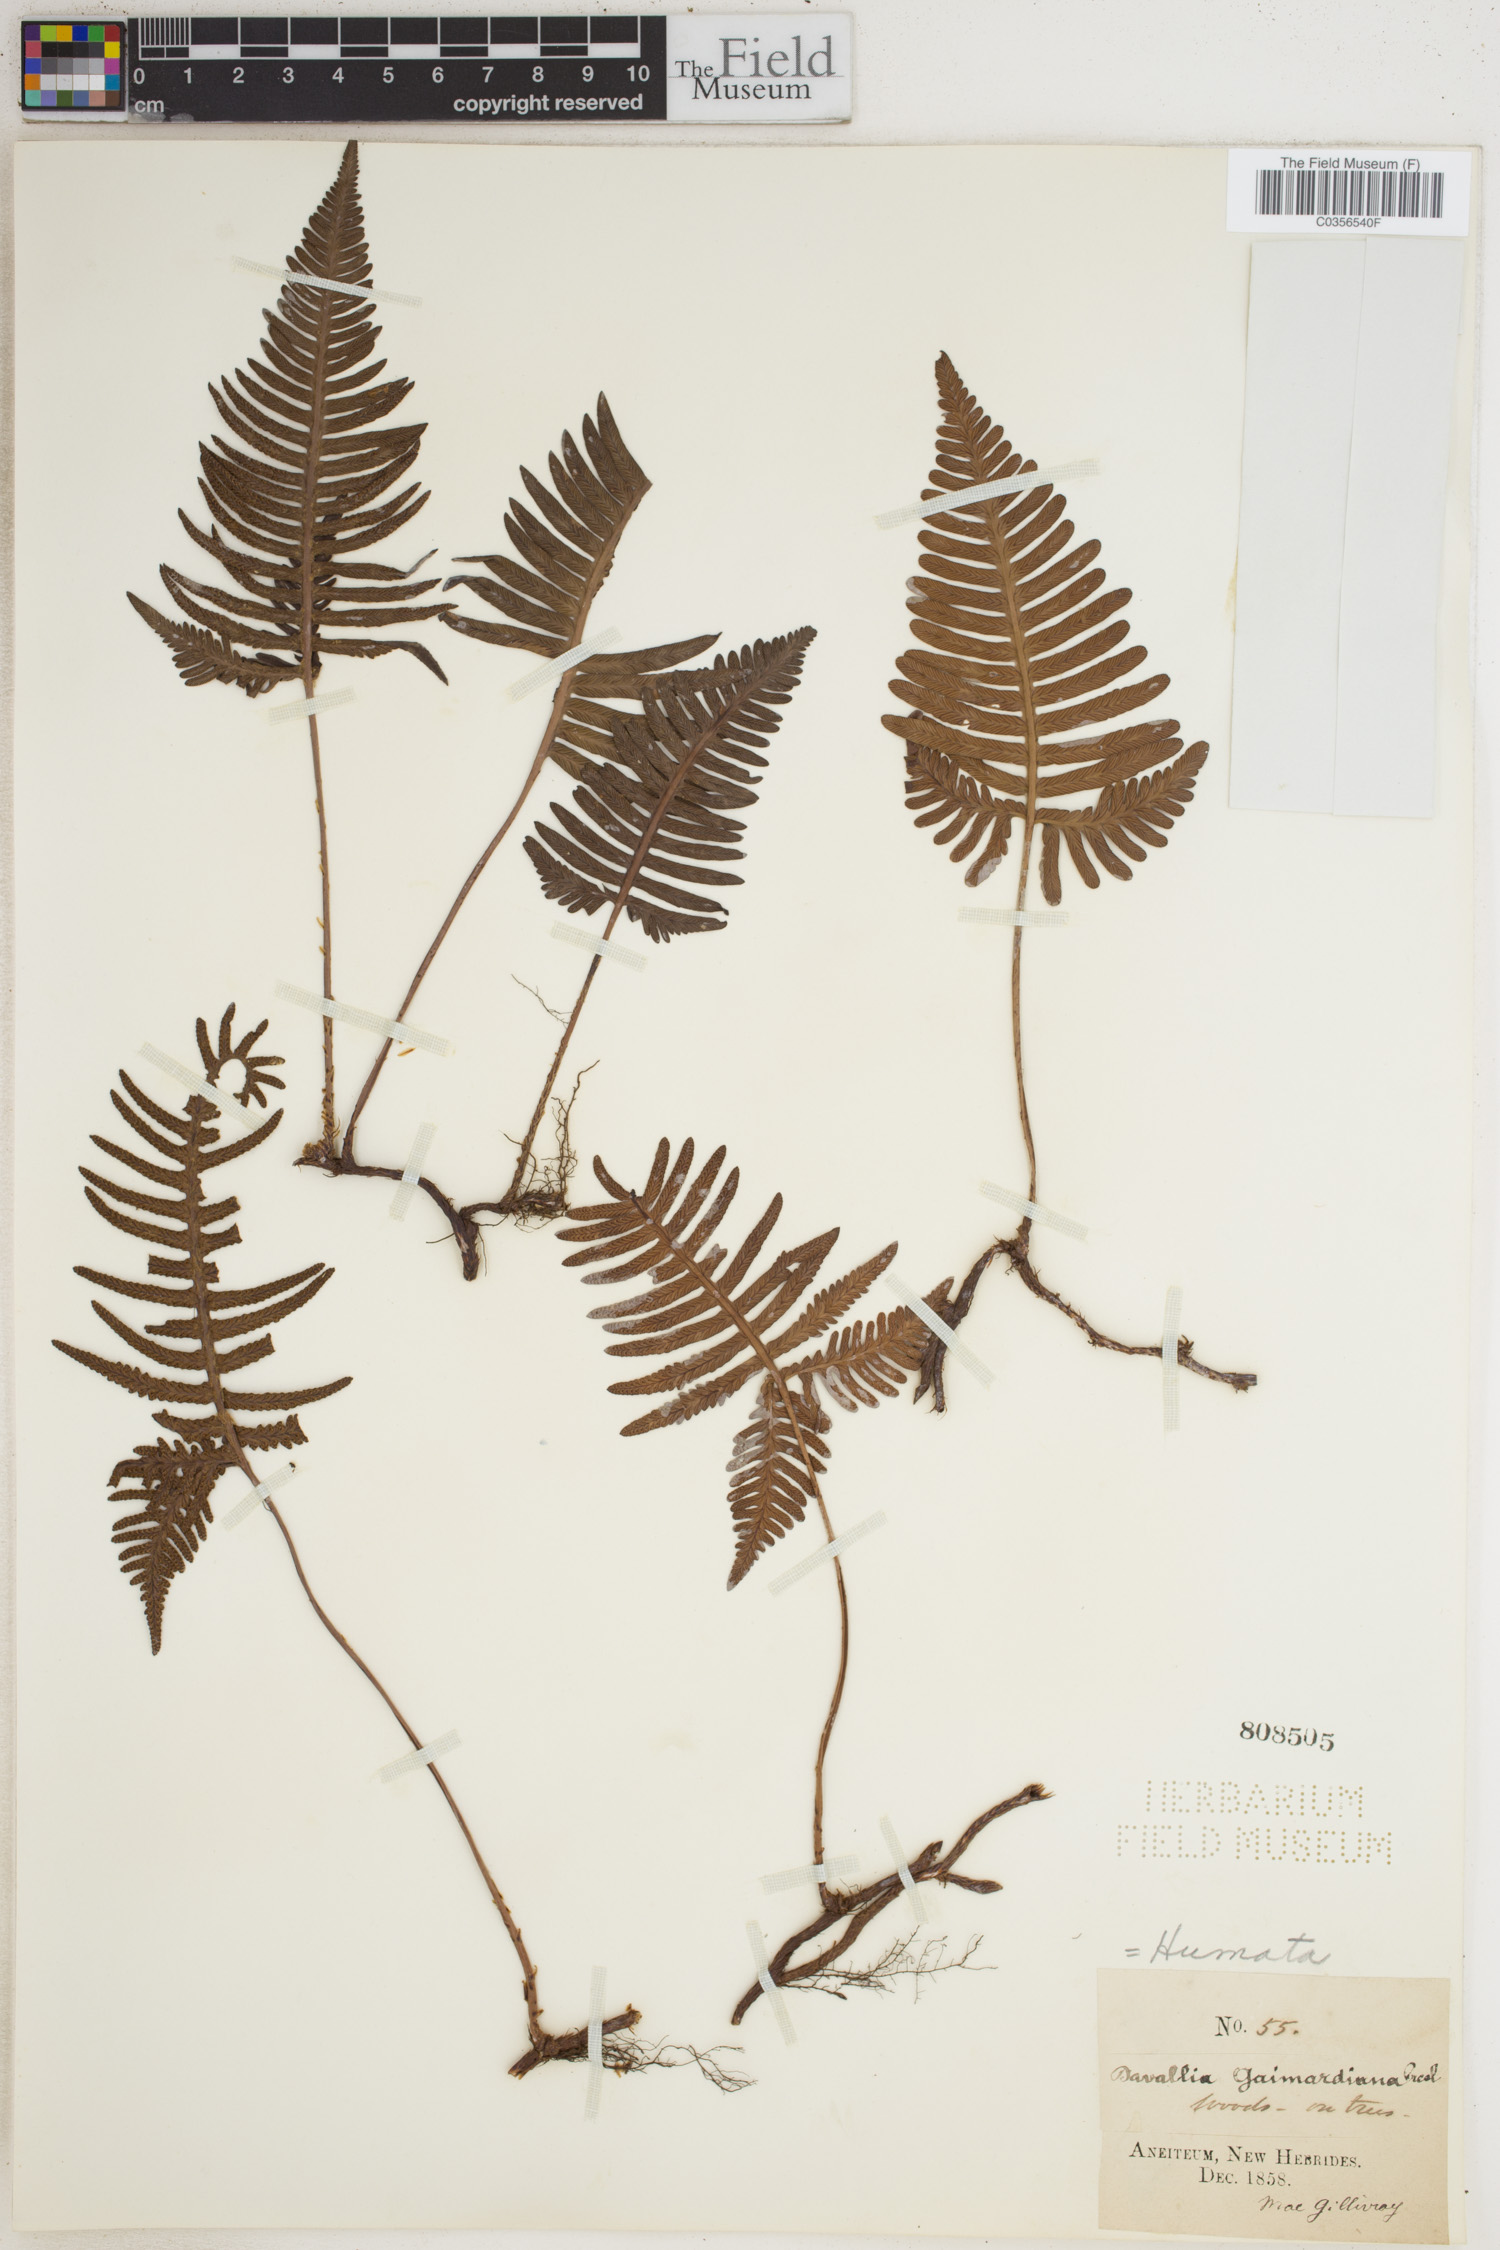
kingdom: Plantae
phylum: Tracheophyta
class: Polypodiopsida
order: Polypodiales
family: Davalliaceae
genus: Davallia
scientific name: Davallia
